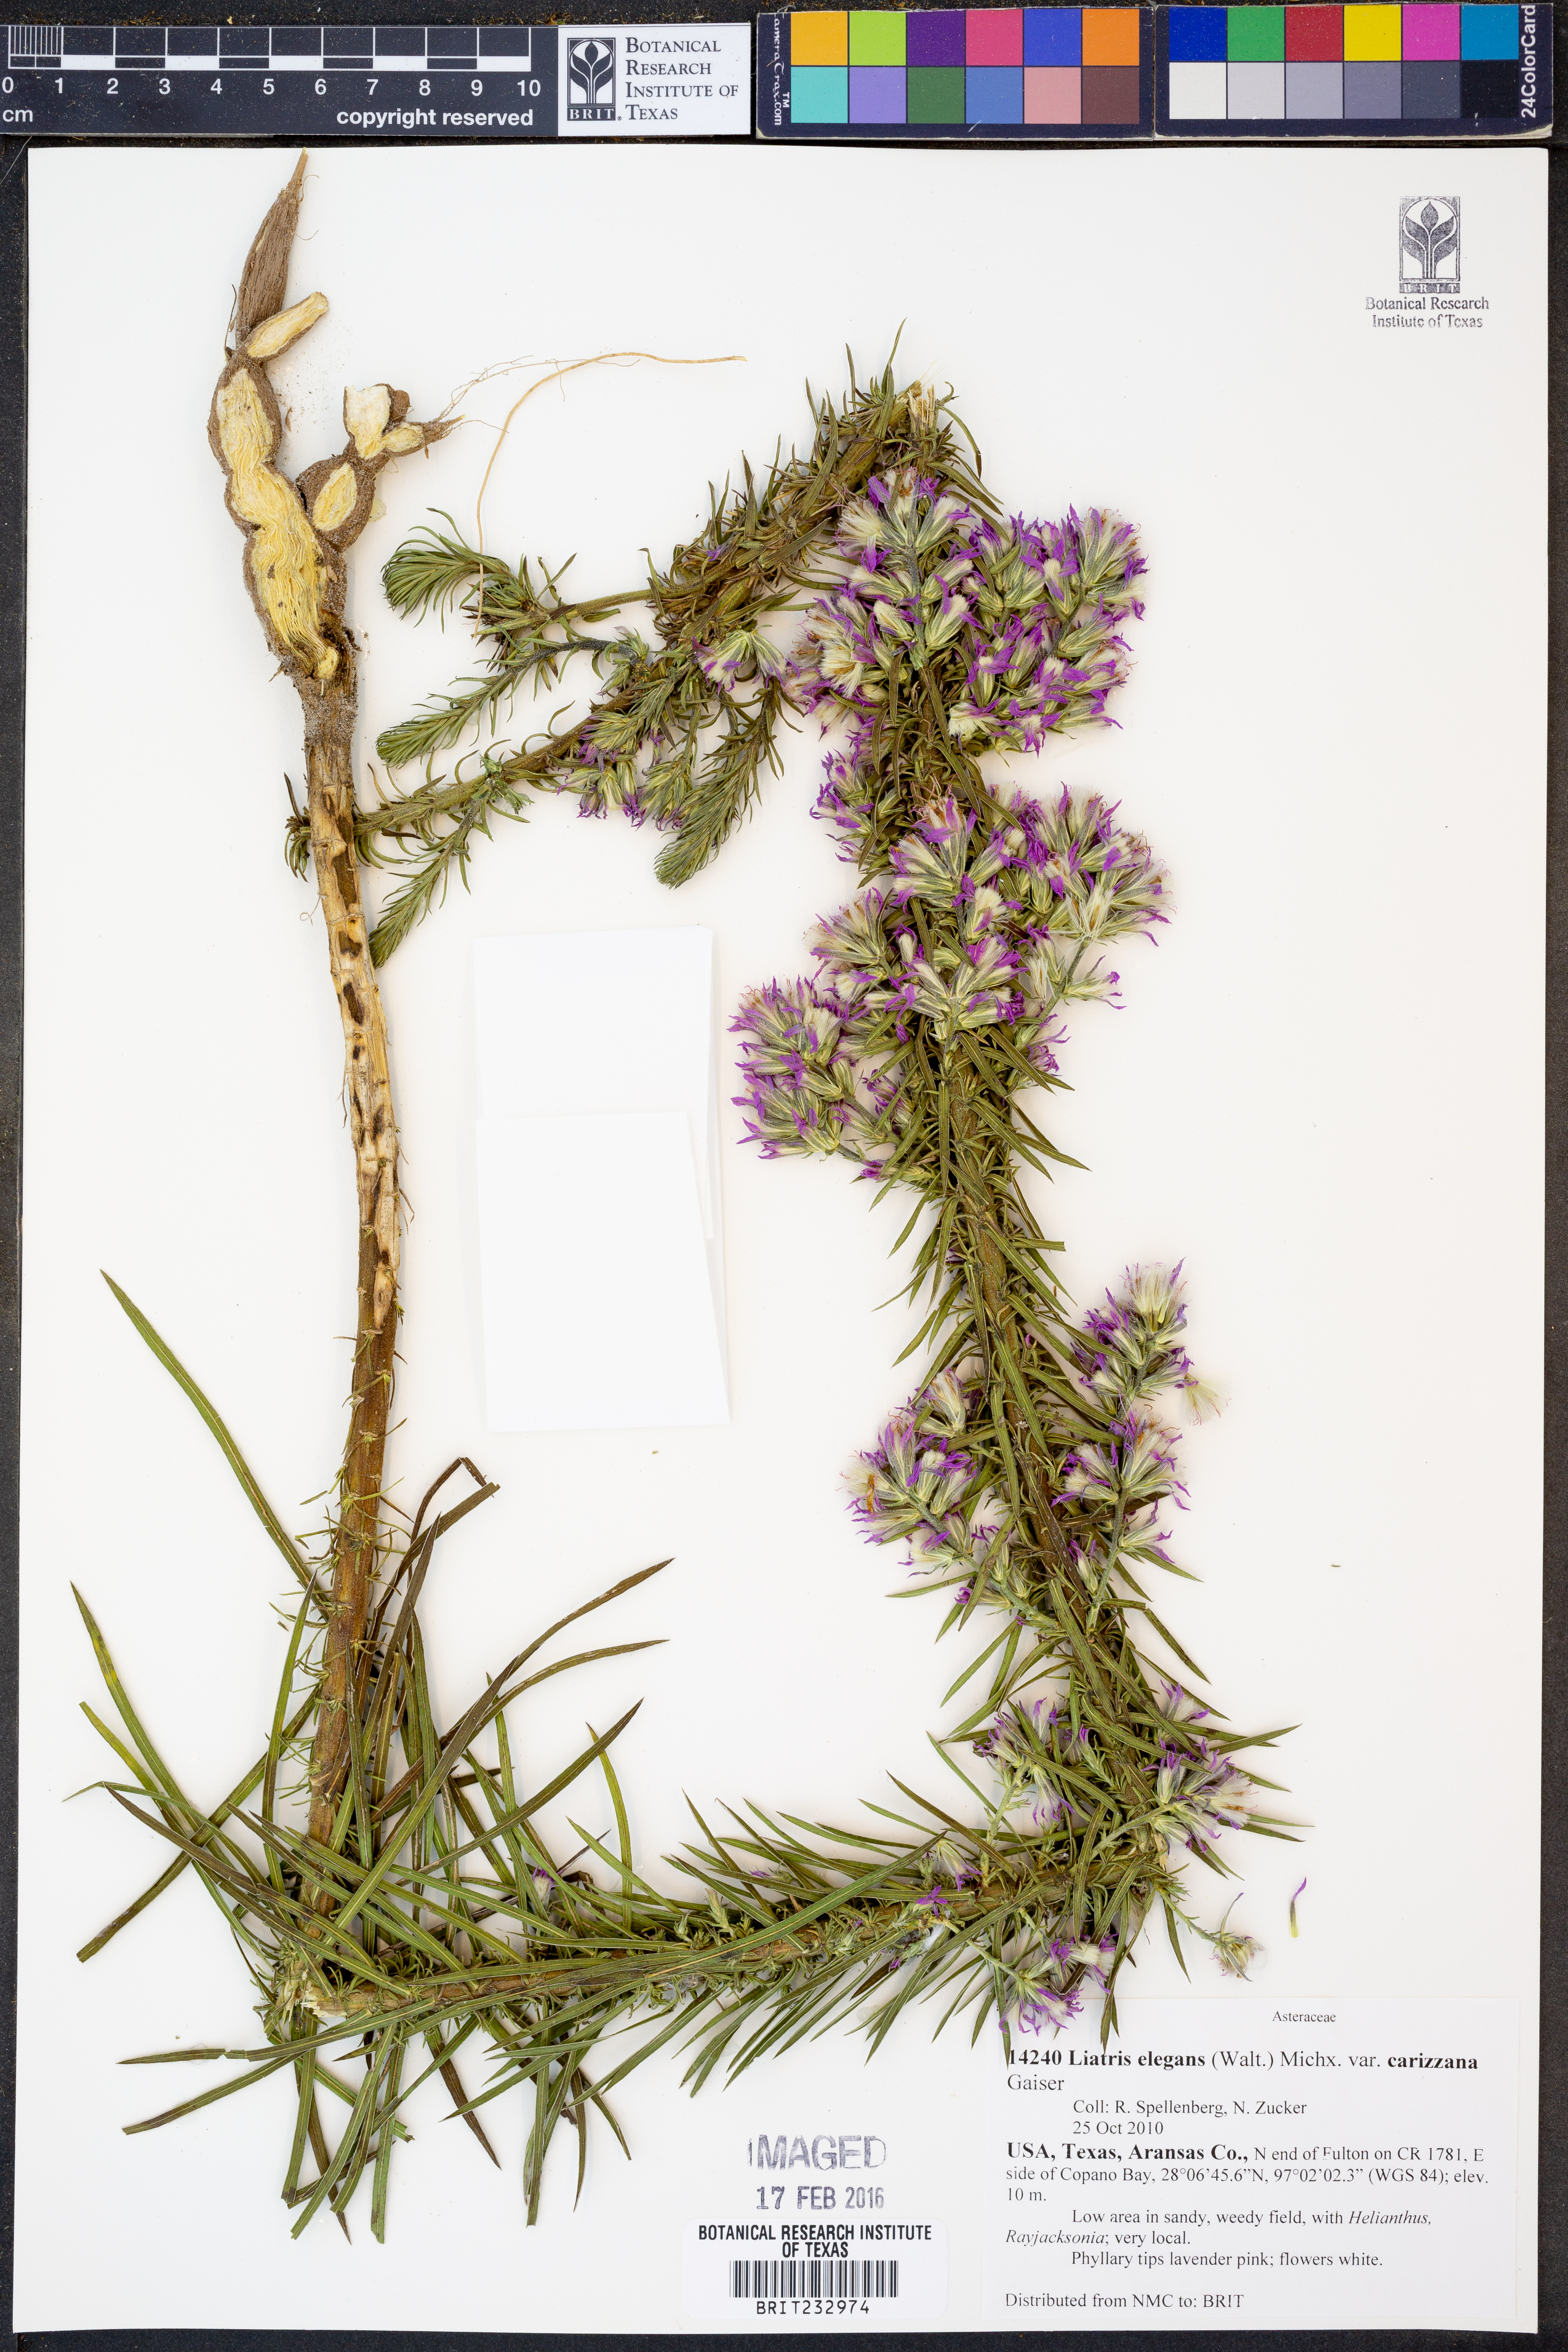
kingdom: Plantae
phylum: Tracheophyta
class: Magnoliopsida
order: Asterales
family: Asteraceae
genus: Liatris
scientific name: Liatris carizzana
